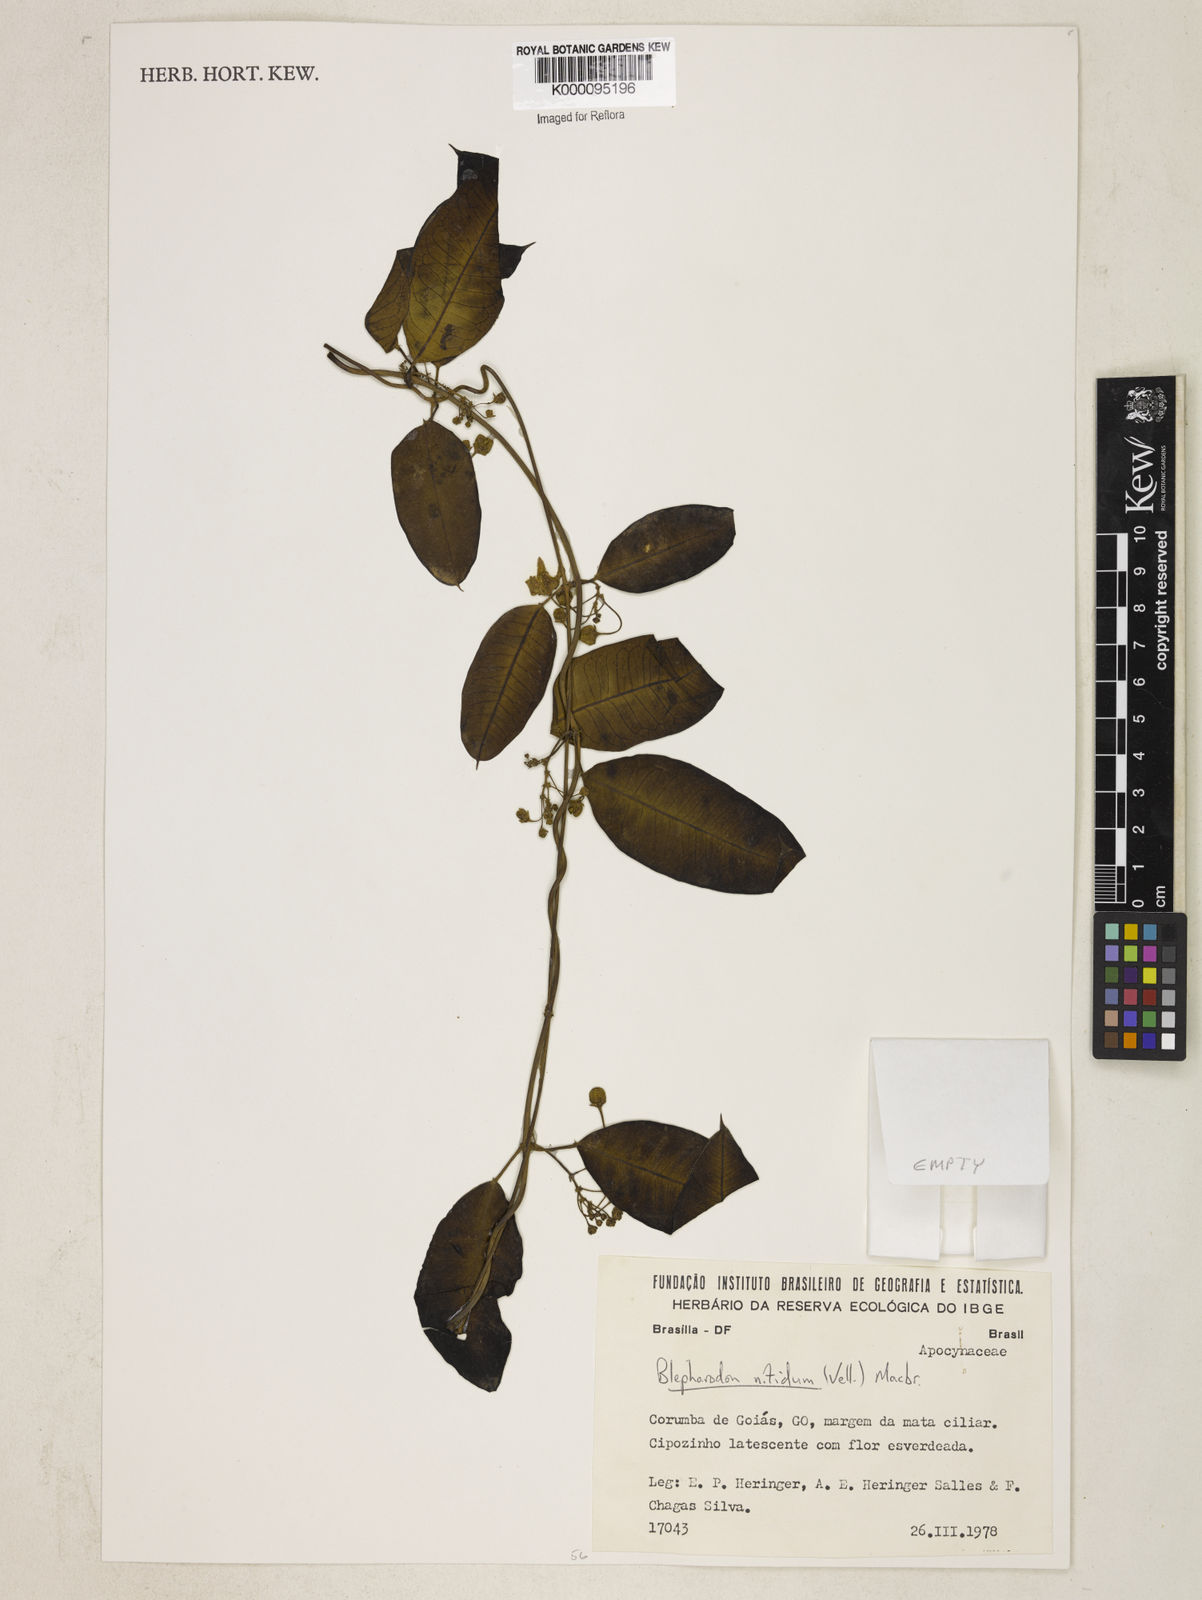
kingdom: Plantae
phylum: Tracheophyta
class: Magnoliopsida
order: Gentianales
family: Apocynaceae
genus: Blepharodon
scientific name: Blepharodon pictum
